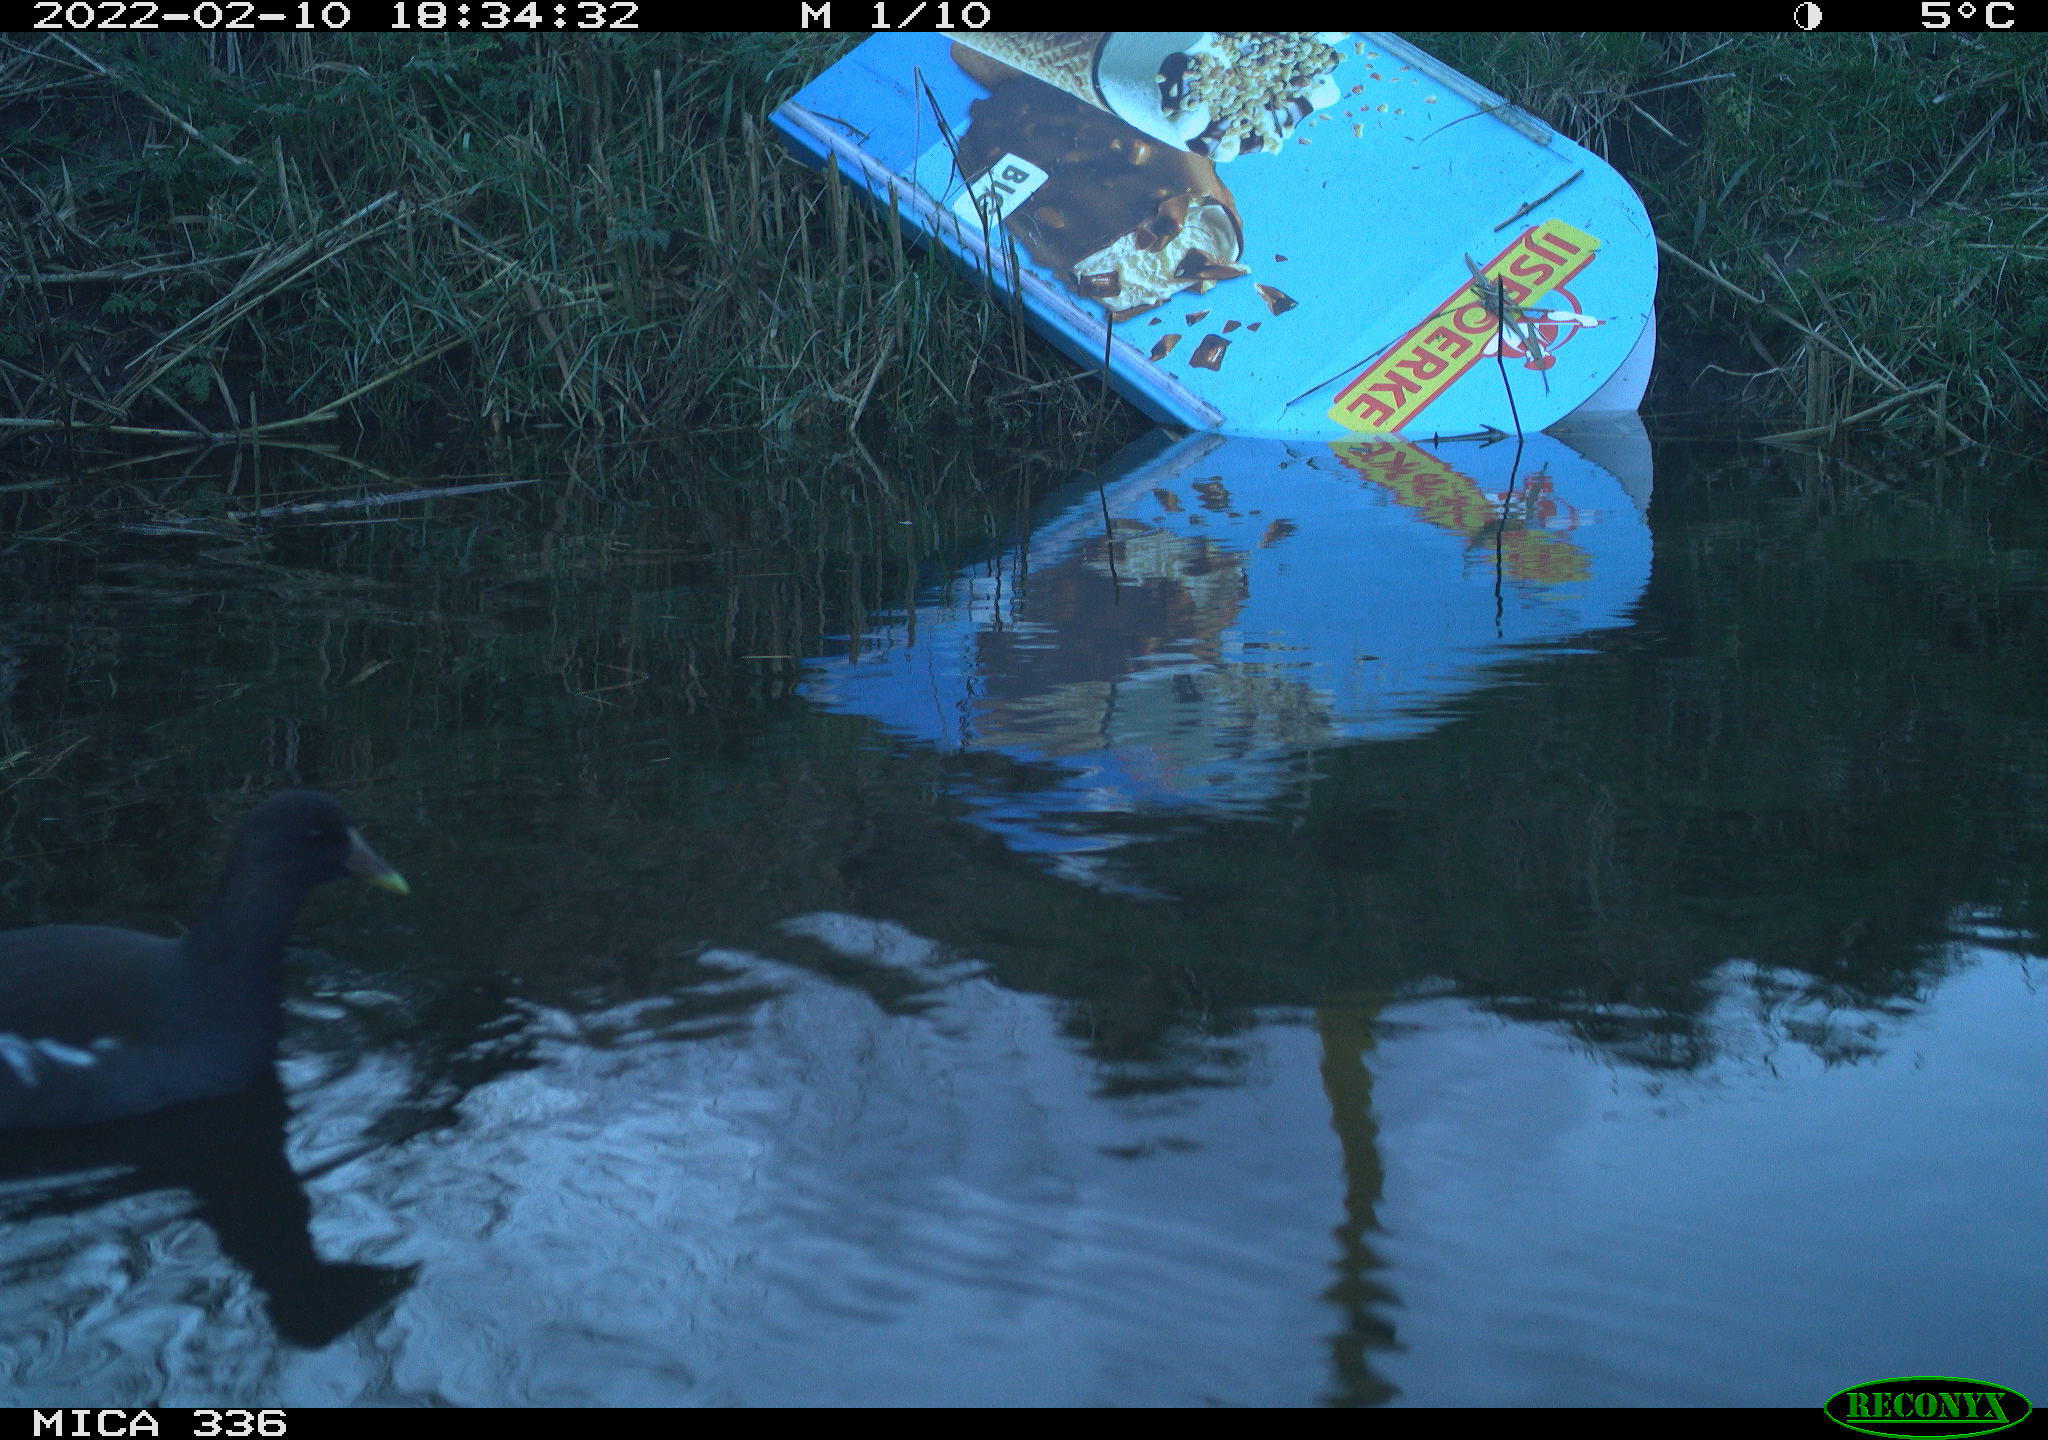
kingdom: Animalia
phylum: Chordata
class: Aves
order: Gruiformes
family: Rallidae
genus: Gallinula
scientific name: Gallinula chloropus
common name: Common moorhen
